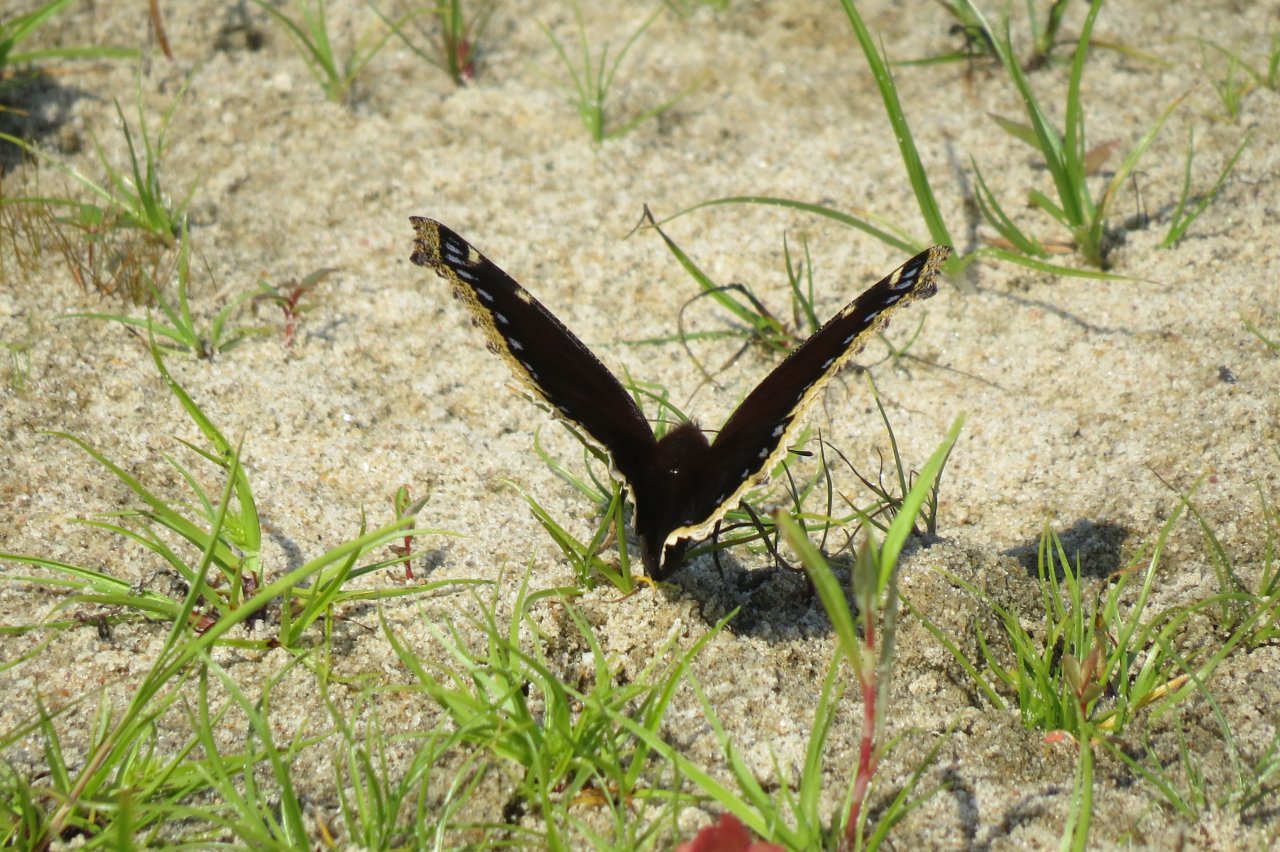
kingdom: Animalia
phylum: Arthropoda
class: Insecta
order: Lepidoptera
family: Nymphalidae
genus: Nymphalis
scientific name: Nymphalis antiopa
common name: Mourning Cloak
